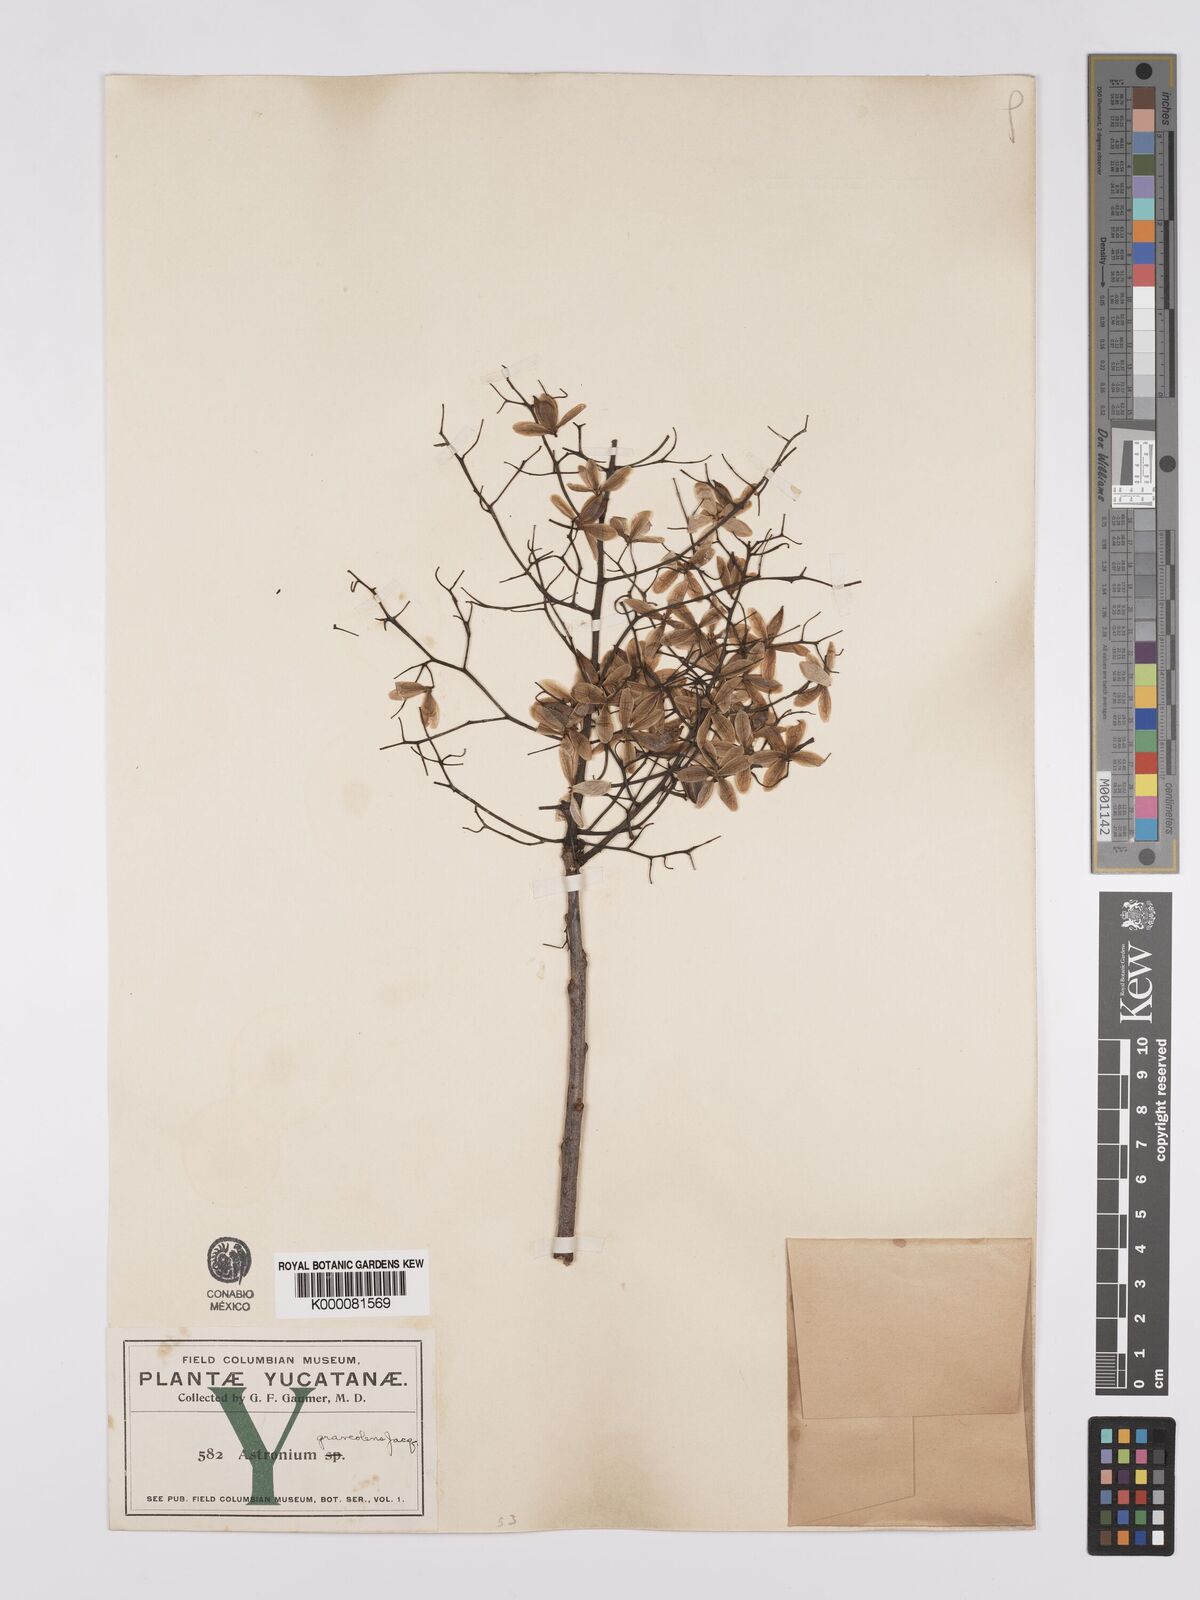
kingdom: Plantae
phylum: Tracheophyta
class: Magnoliopsida
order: Sapindales
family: Anacardiaceae
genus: Astronium
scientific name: Astronium graveolens
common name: Glassywood
